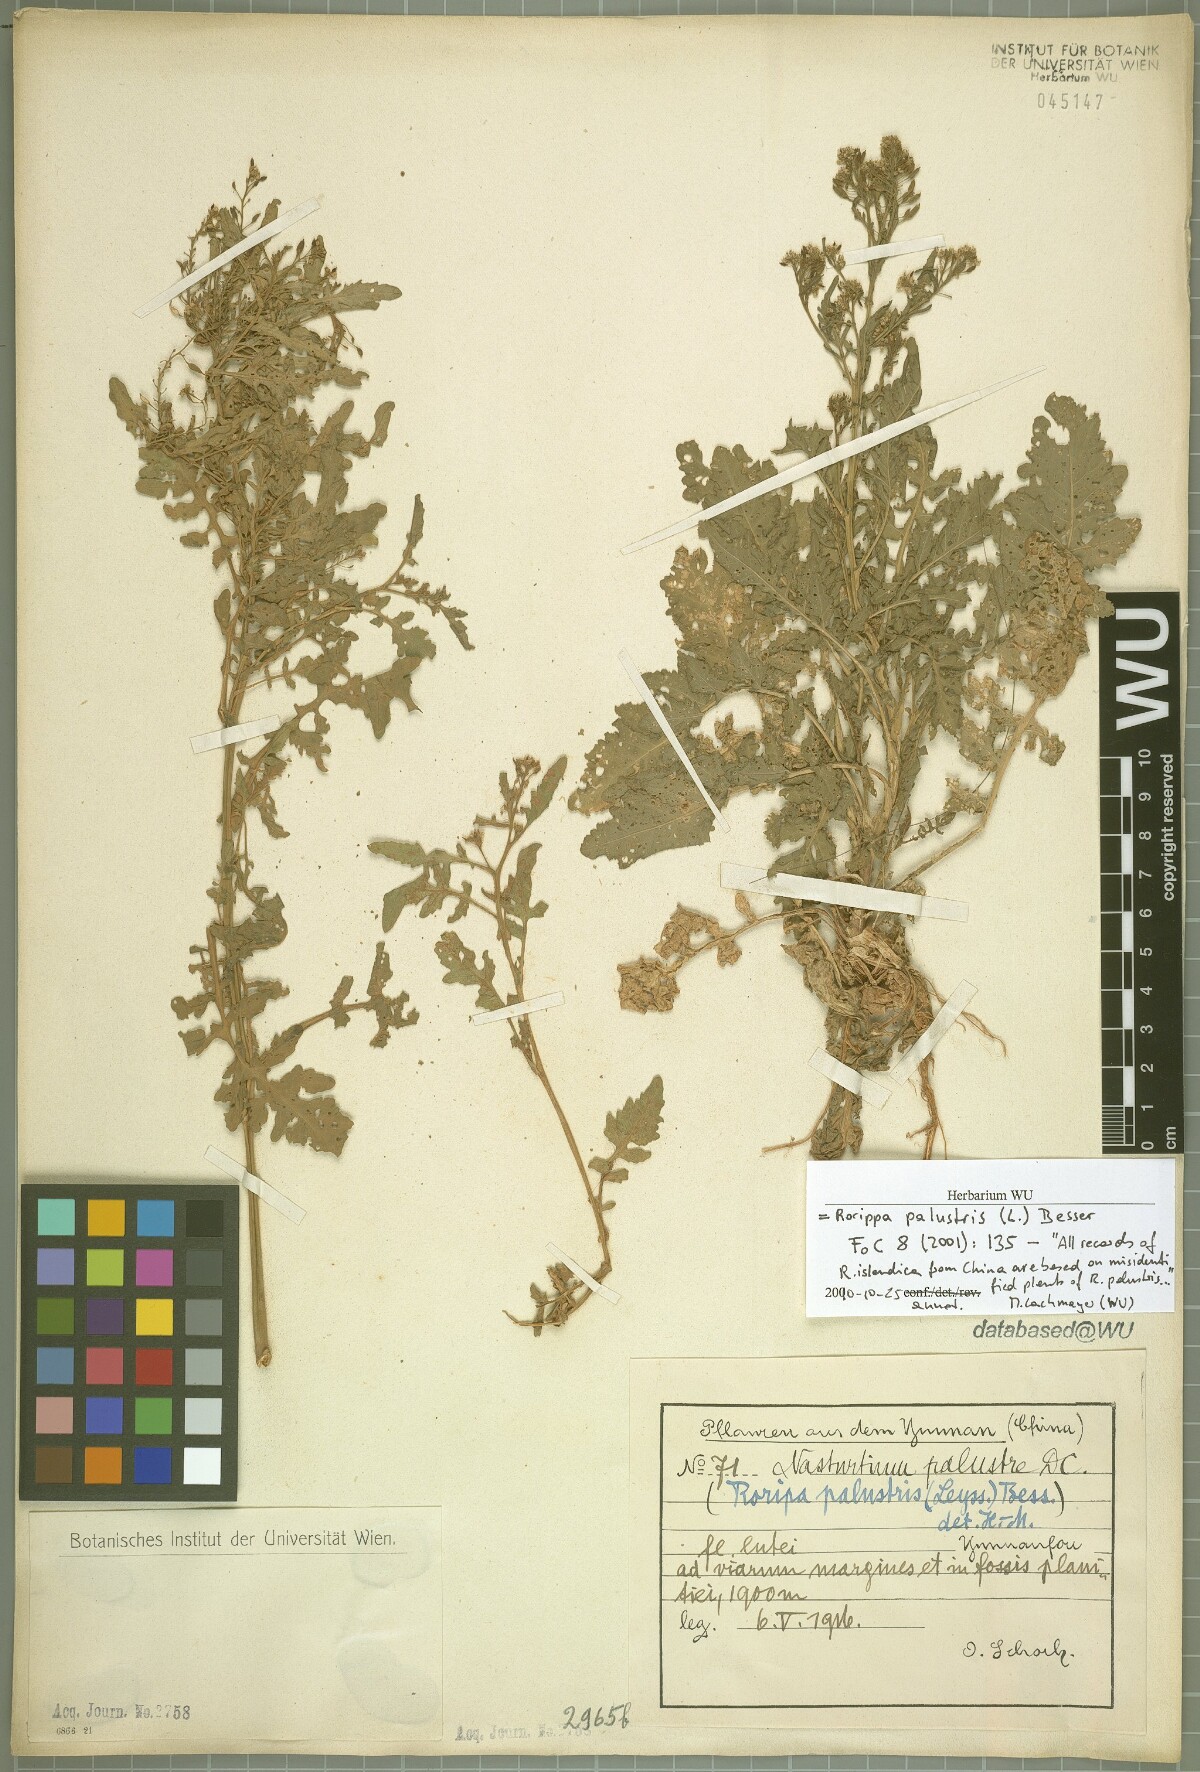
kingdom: Plantae
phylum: Tracheophyta
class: Magnoliopsida
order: Brassicales
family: Brassicaceae
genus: Rorippa
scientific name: Rorippa palustris
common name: Marsh yellow-cress
